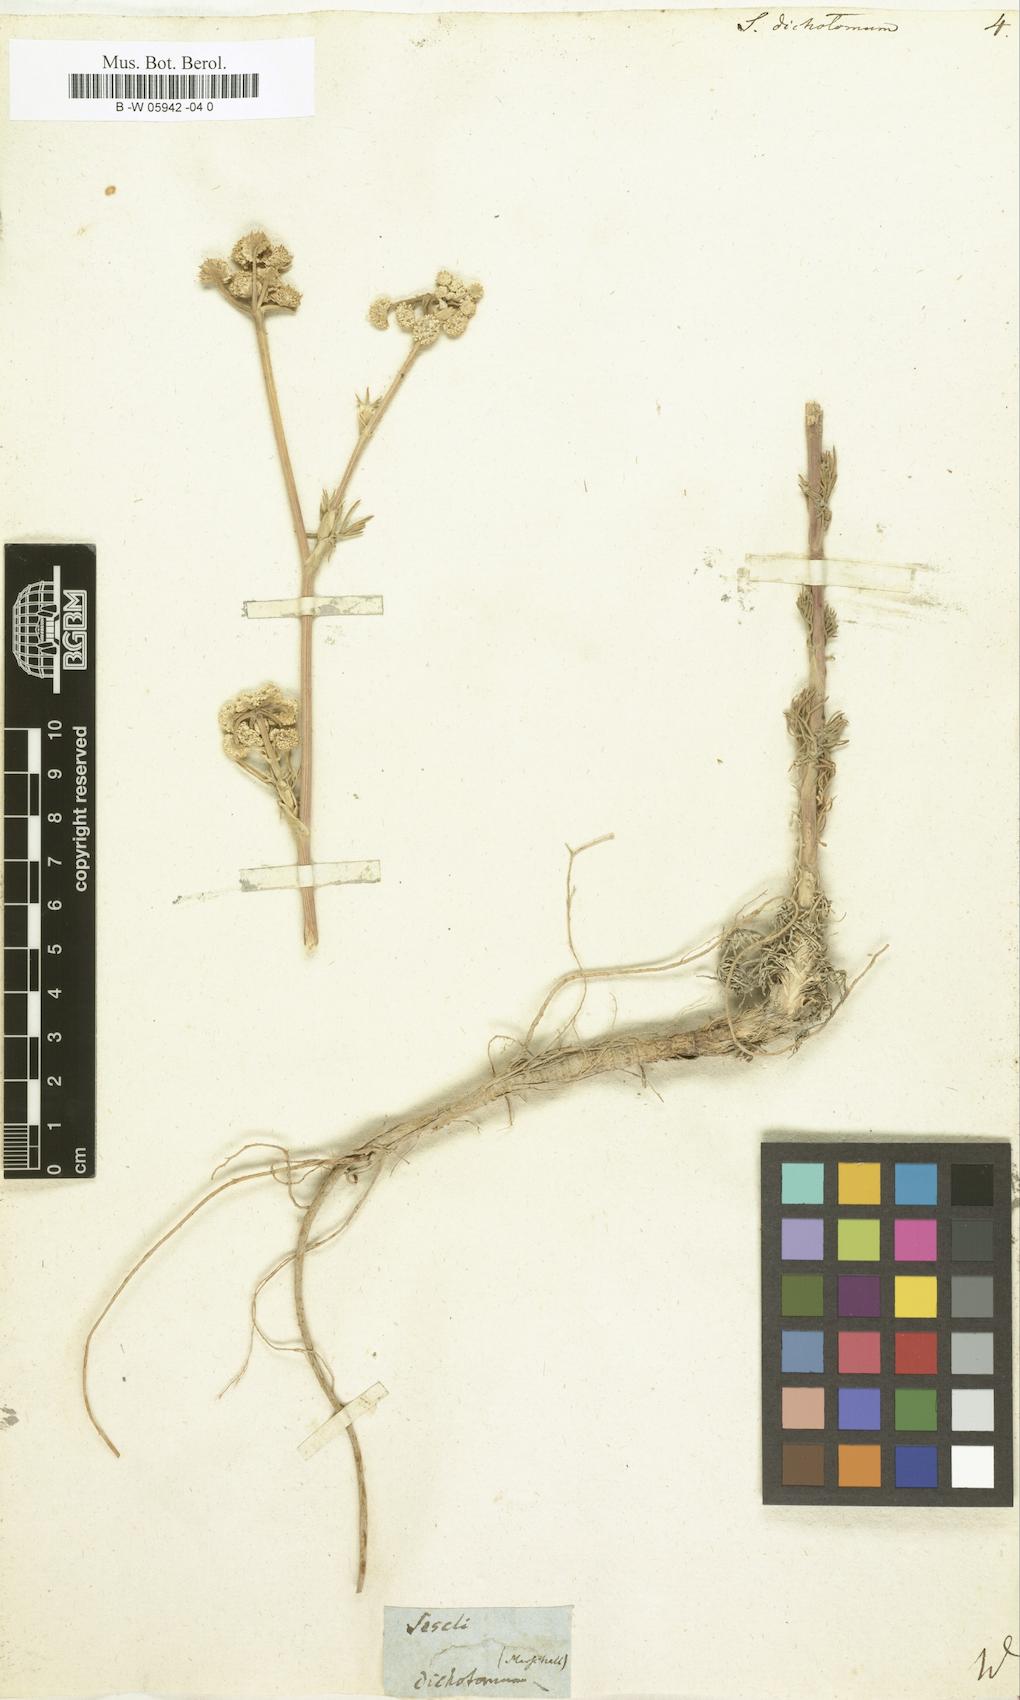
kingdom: Plantae
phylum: Tracheophyta
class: Magnoliopsida
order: Apiales
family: Apiaceae
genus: Seseli
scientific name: Seseli dichotomum
